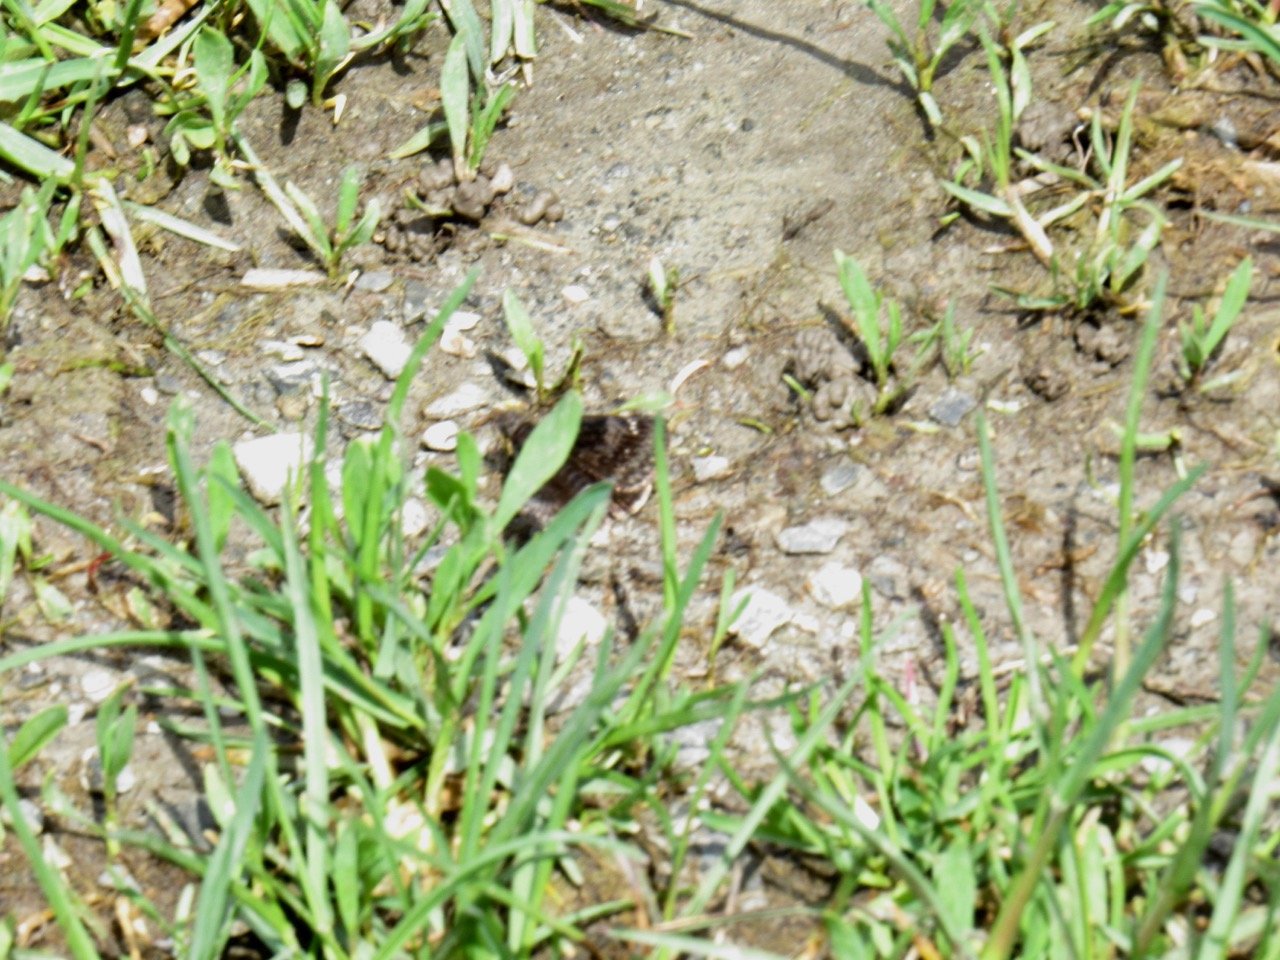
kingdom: Animalia
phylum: Arthropoda
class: Insecta
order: Lepidoptera
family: Hesperiidae
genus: Gesta
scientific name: Gesta
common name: Juvenal's Duskywing
